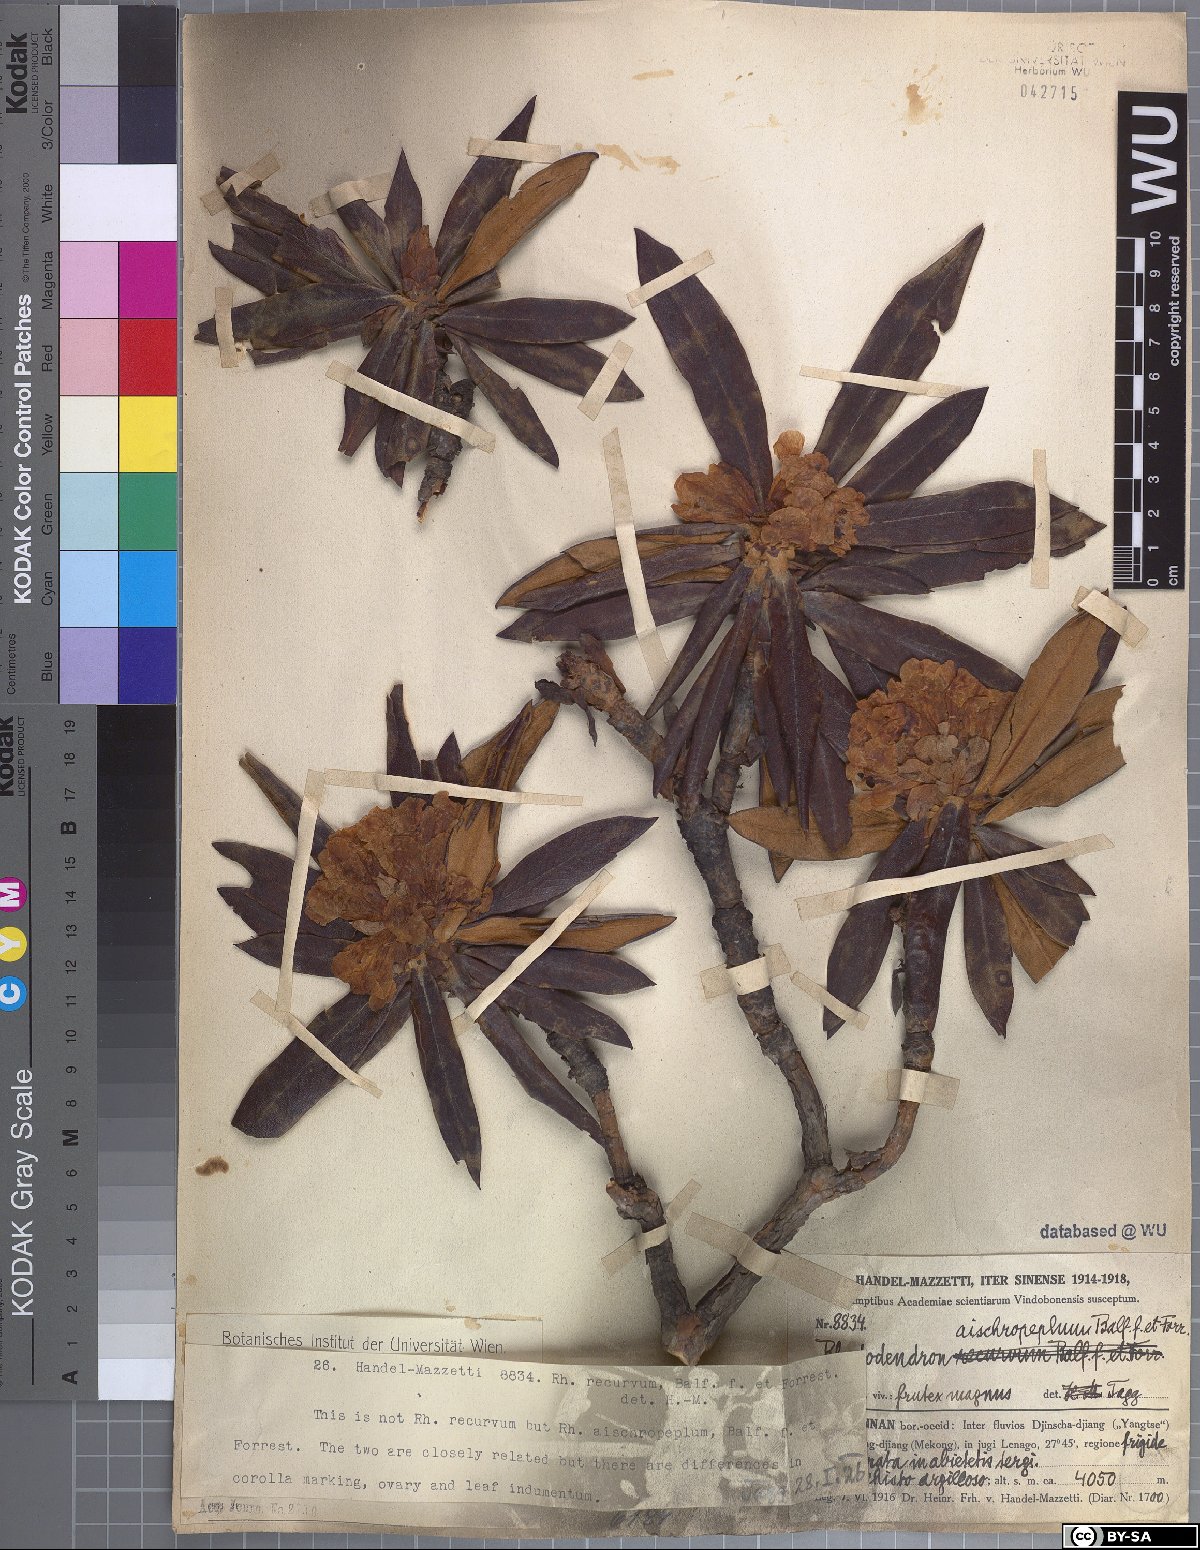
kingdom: Plantae
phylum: Tracheophyta
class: Magnoliopsida
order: Ericales
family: Ericaceae
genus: Rhododendron
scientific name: Rhododendron roxieanum
